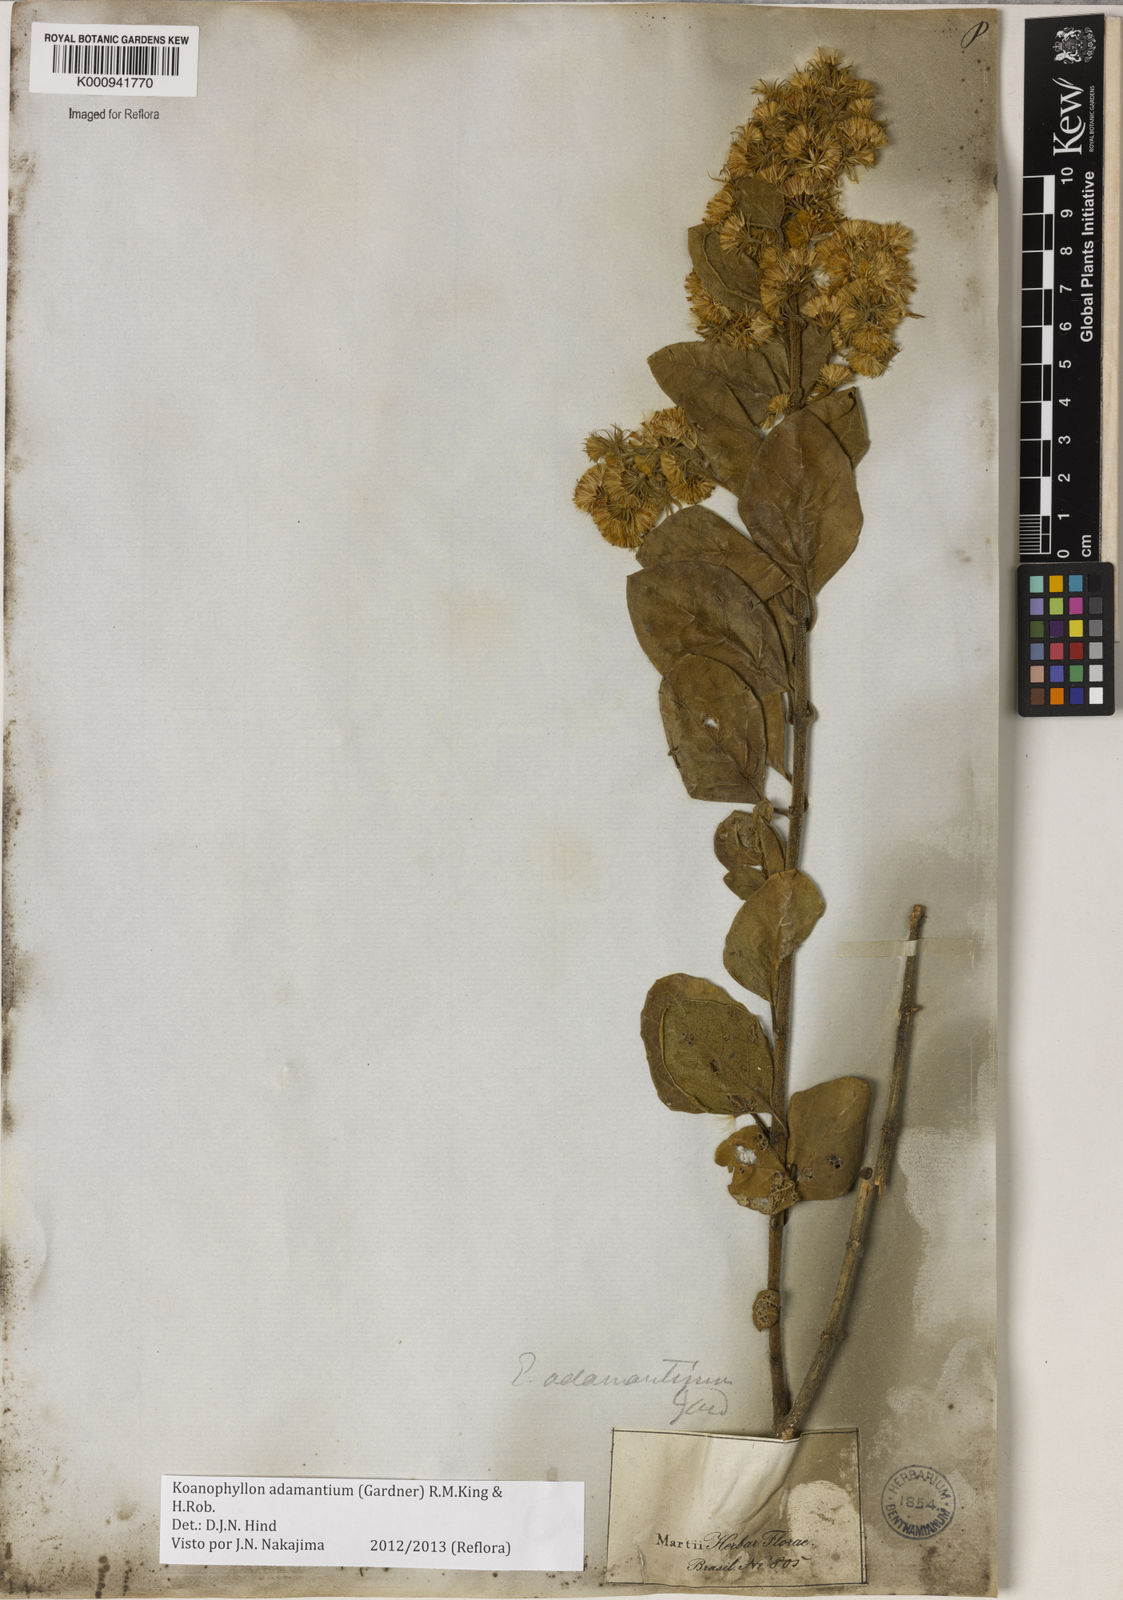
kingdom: Plantae
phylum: Tracheophyta
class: Magnoliopsida
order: Asterales
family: Asteraceae
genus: Koanophyllon
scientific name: Koanophyllon adamantium
